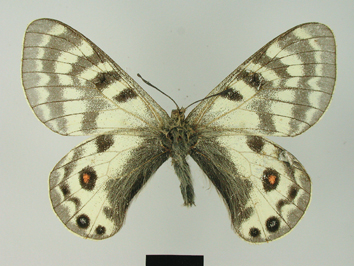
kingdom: Animalia
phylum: Arthropoda
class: Insecta
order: Lepidoptera
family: Papilionidae
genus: Parnassius
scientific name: Parnassius staudingeri
